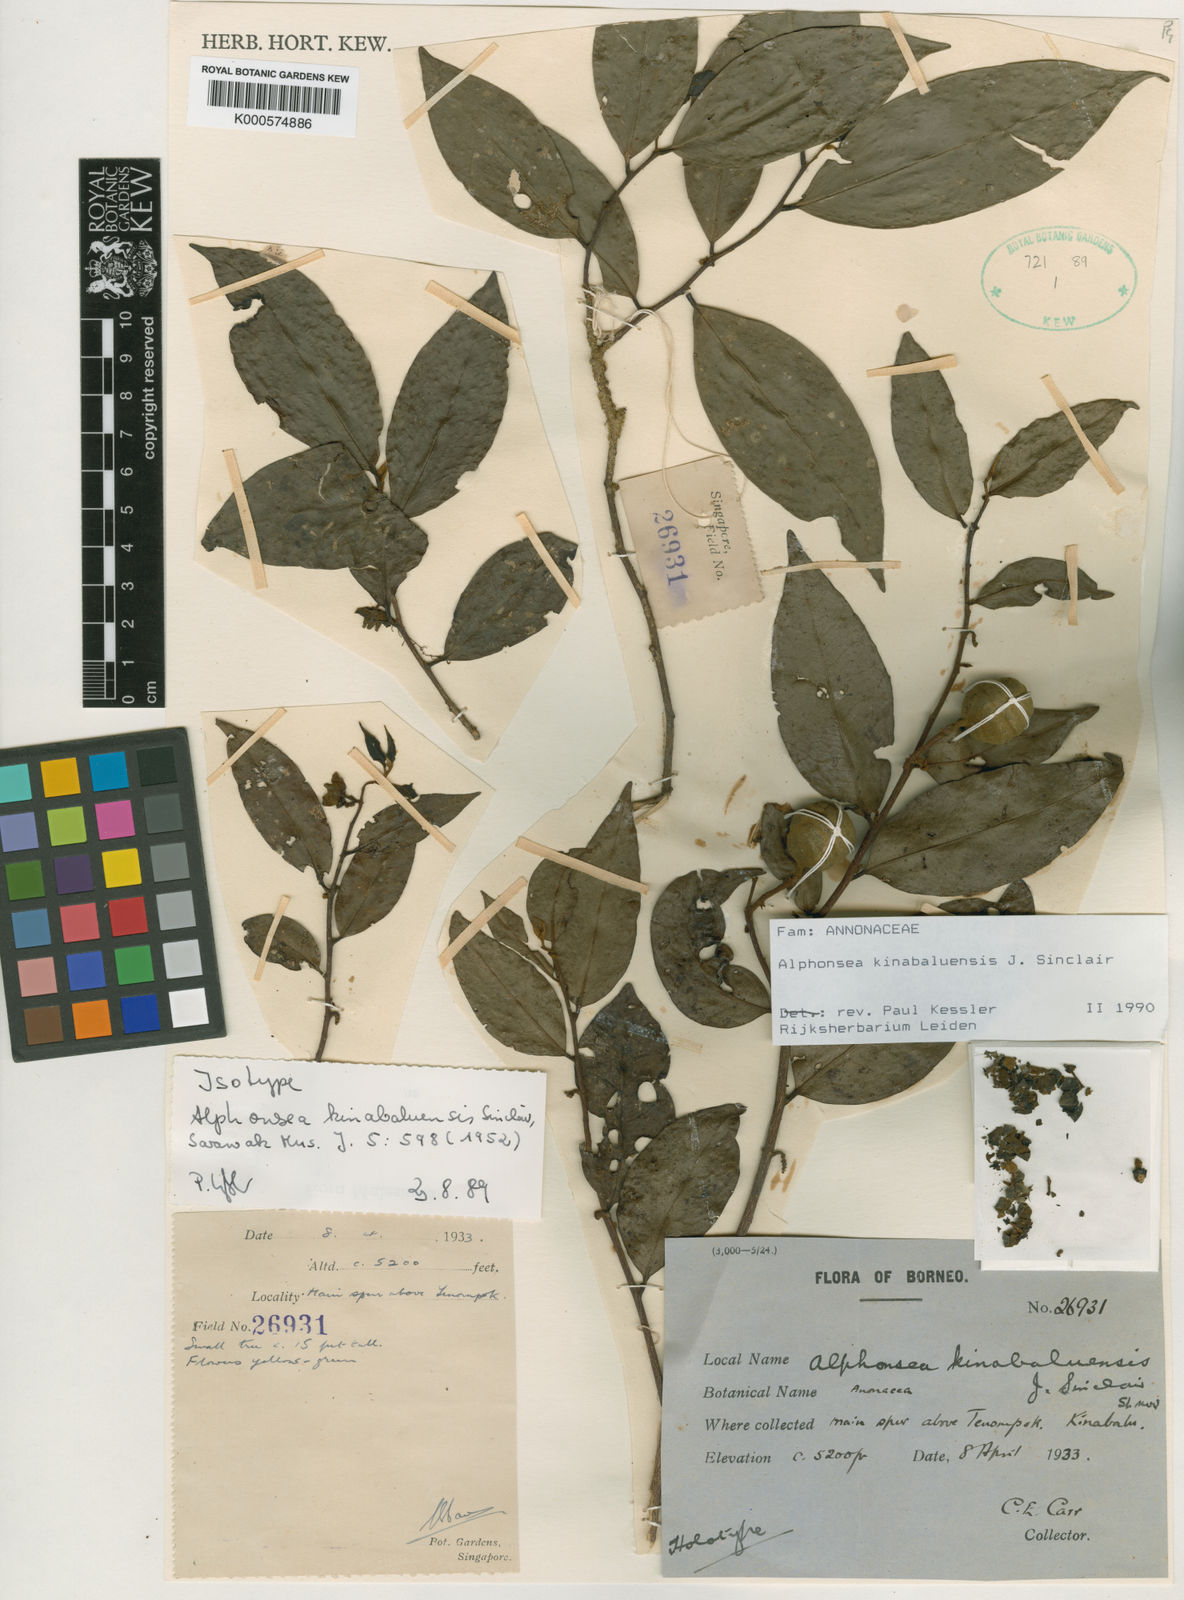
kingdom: Plantae
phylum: Tracheophyta
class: Magnoliopsida
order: Magnoliales
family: Annonaceae
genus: Alphonsea
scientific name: Alphonsea kinabaluensis
